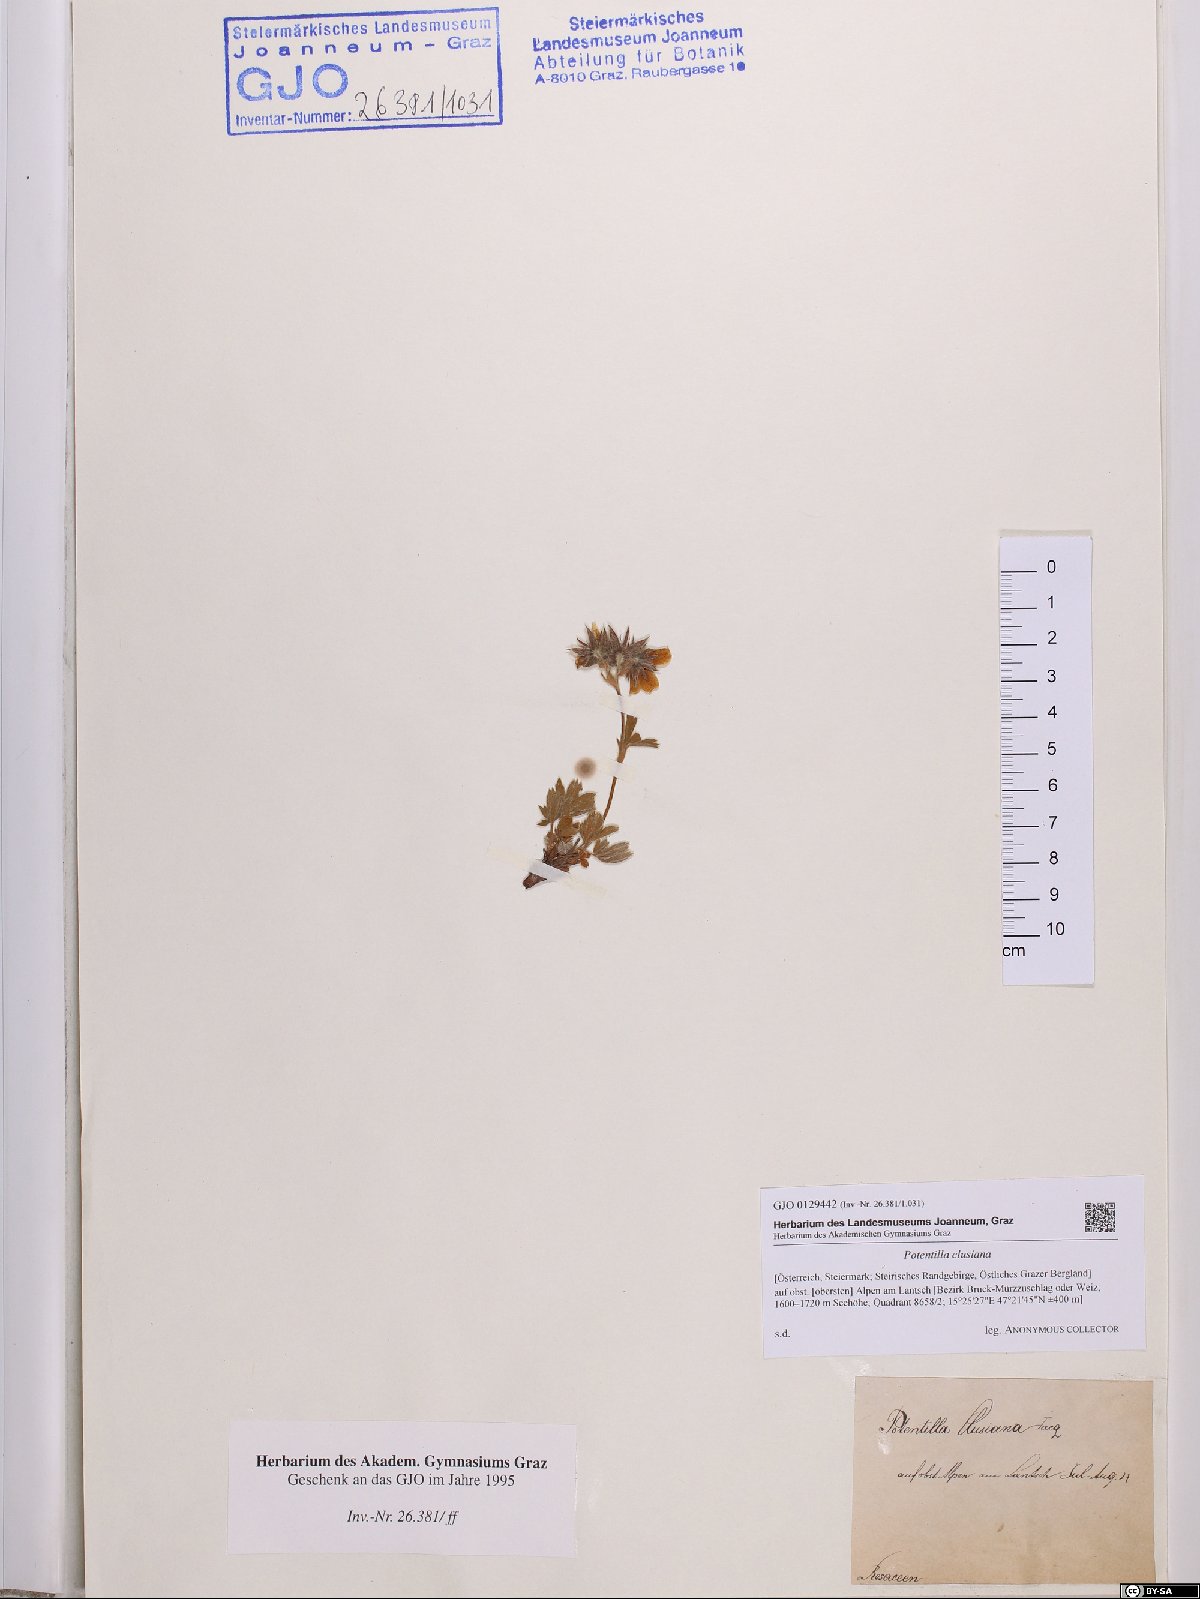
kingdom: Plantae
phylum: Tracheophyta
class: Magnoliopsida
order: Rosales
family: Rosaceae
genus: Potentilla
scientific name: Potentilla clusiana
